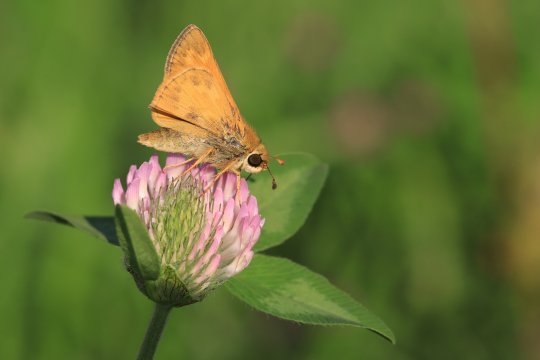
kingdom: Animalia
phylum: Arthropoda
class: Insecta
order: Lepidoptera
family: Hesperiidae
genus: Atalopedes
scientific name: Atalopedes campestris
